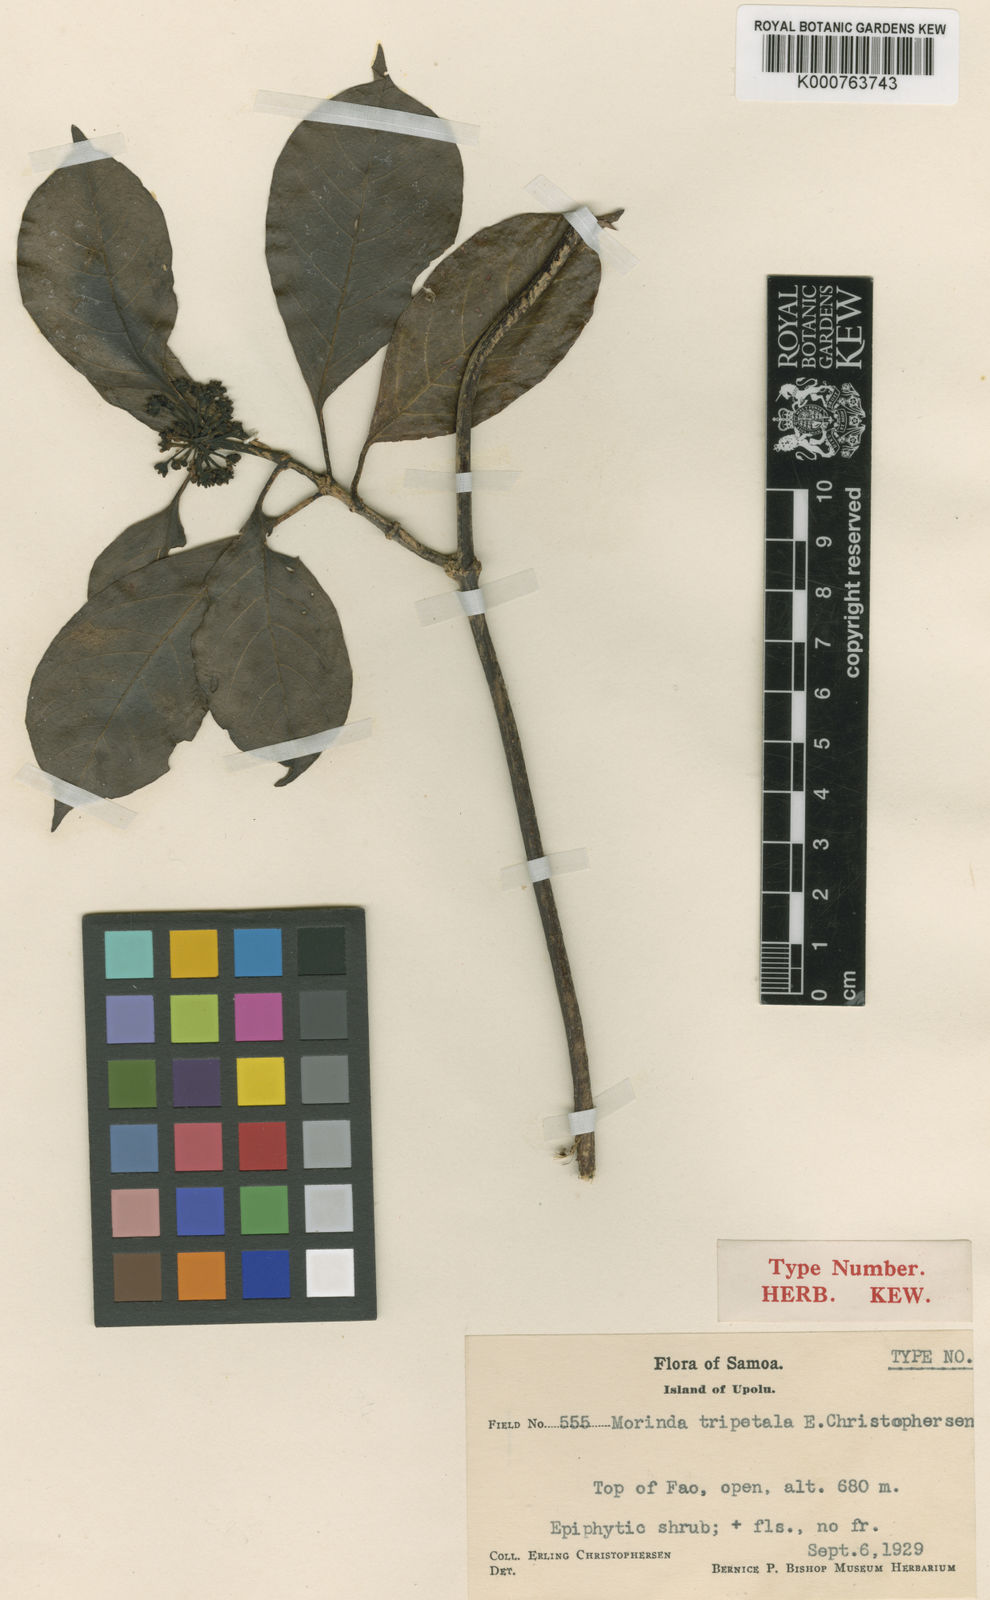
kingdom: Plantae
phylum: Tracheophyta
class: Magnoliopsida
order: Gentianales
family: Rubiaceae
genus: Gynochthodes
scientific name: Gynochthodes bucidifolia
